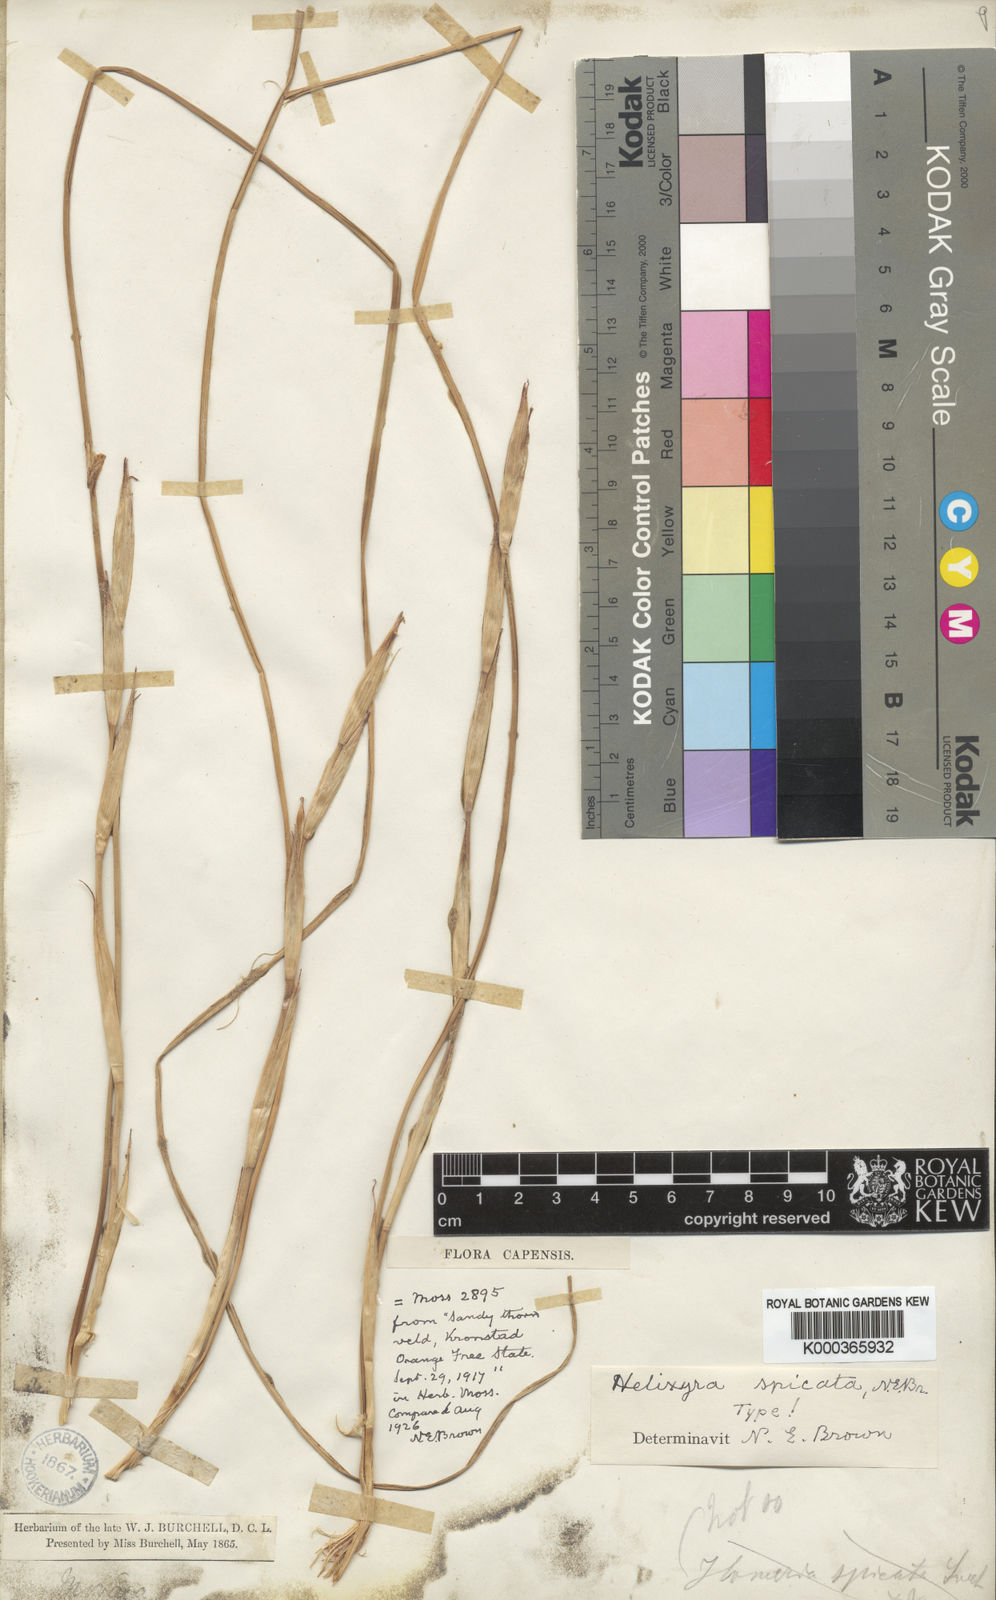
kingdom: Plantae
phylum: Tracheophyta
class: Liliopsida
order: Asparagales
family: Iridaceae
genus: Moraea
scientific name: Moraea simulans
